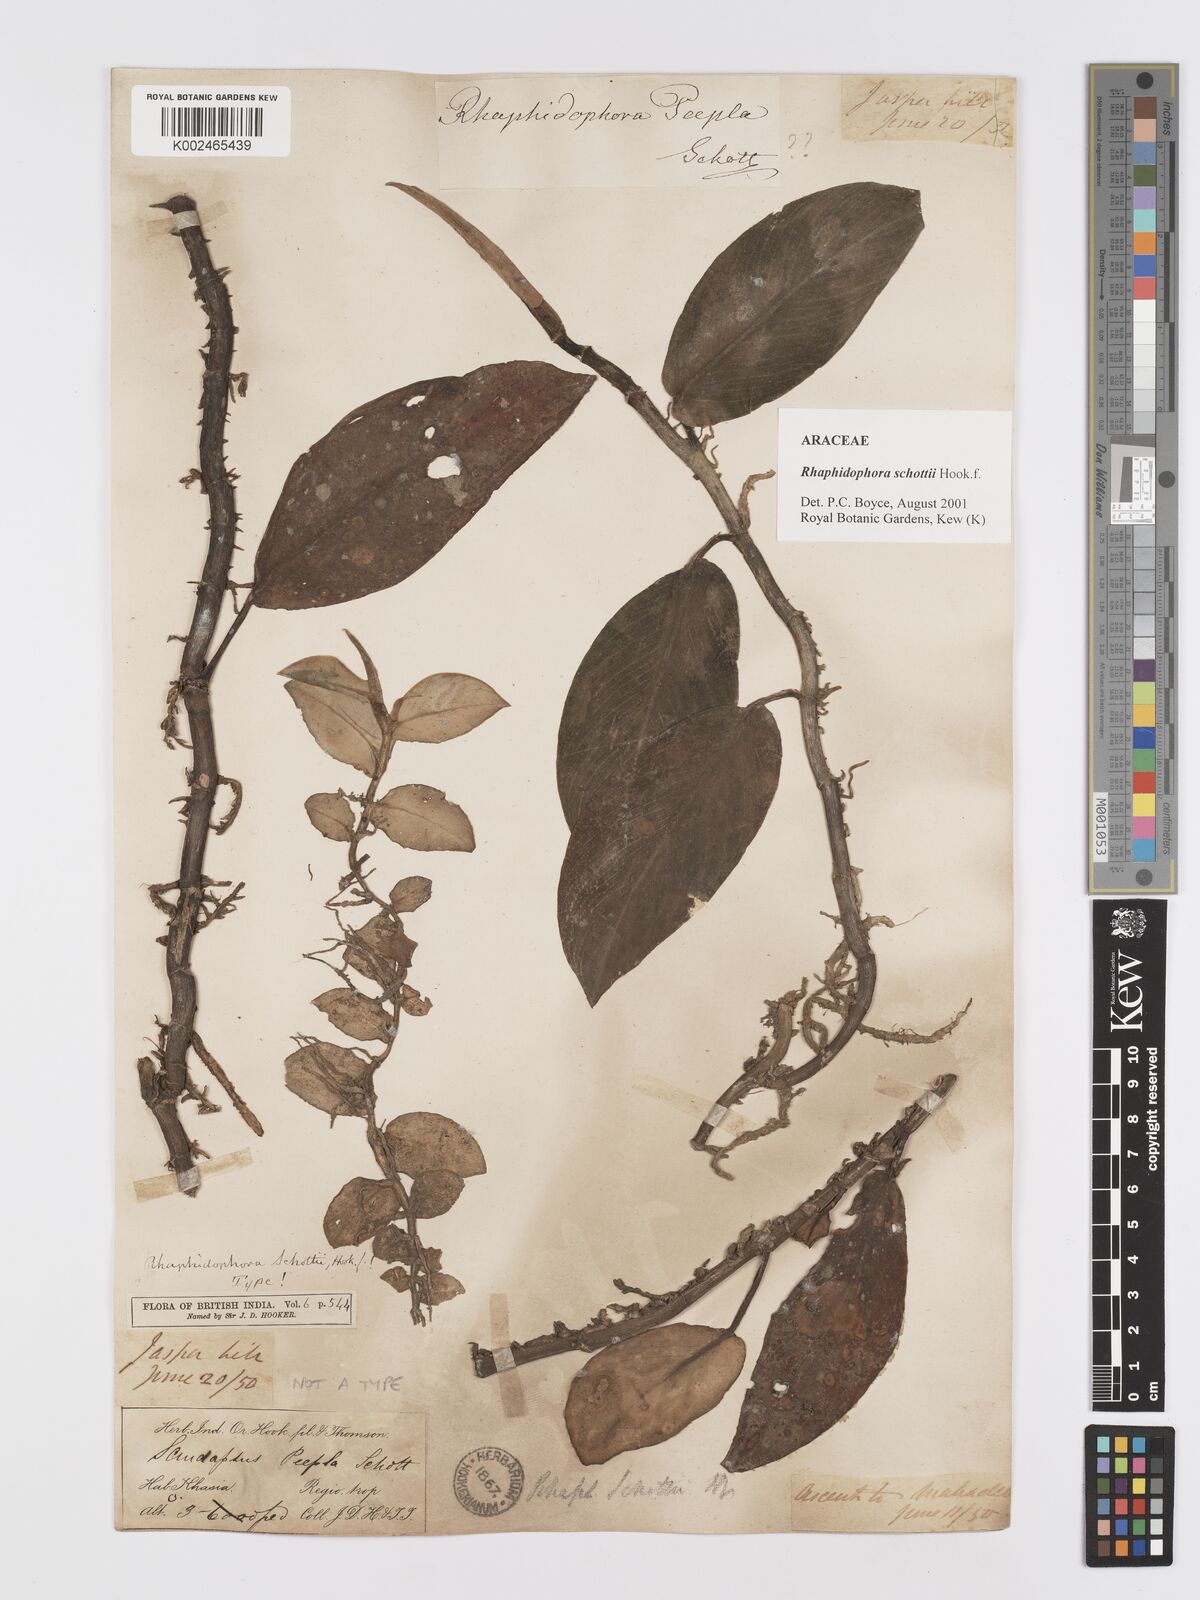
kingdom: Plantae
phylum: Tracheophyta
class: Liliopsida
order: Alismatales
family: Araceae
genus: Rhaphidophora
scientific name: Rhaphidophora schottii
